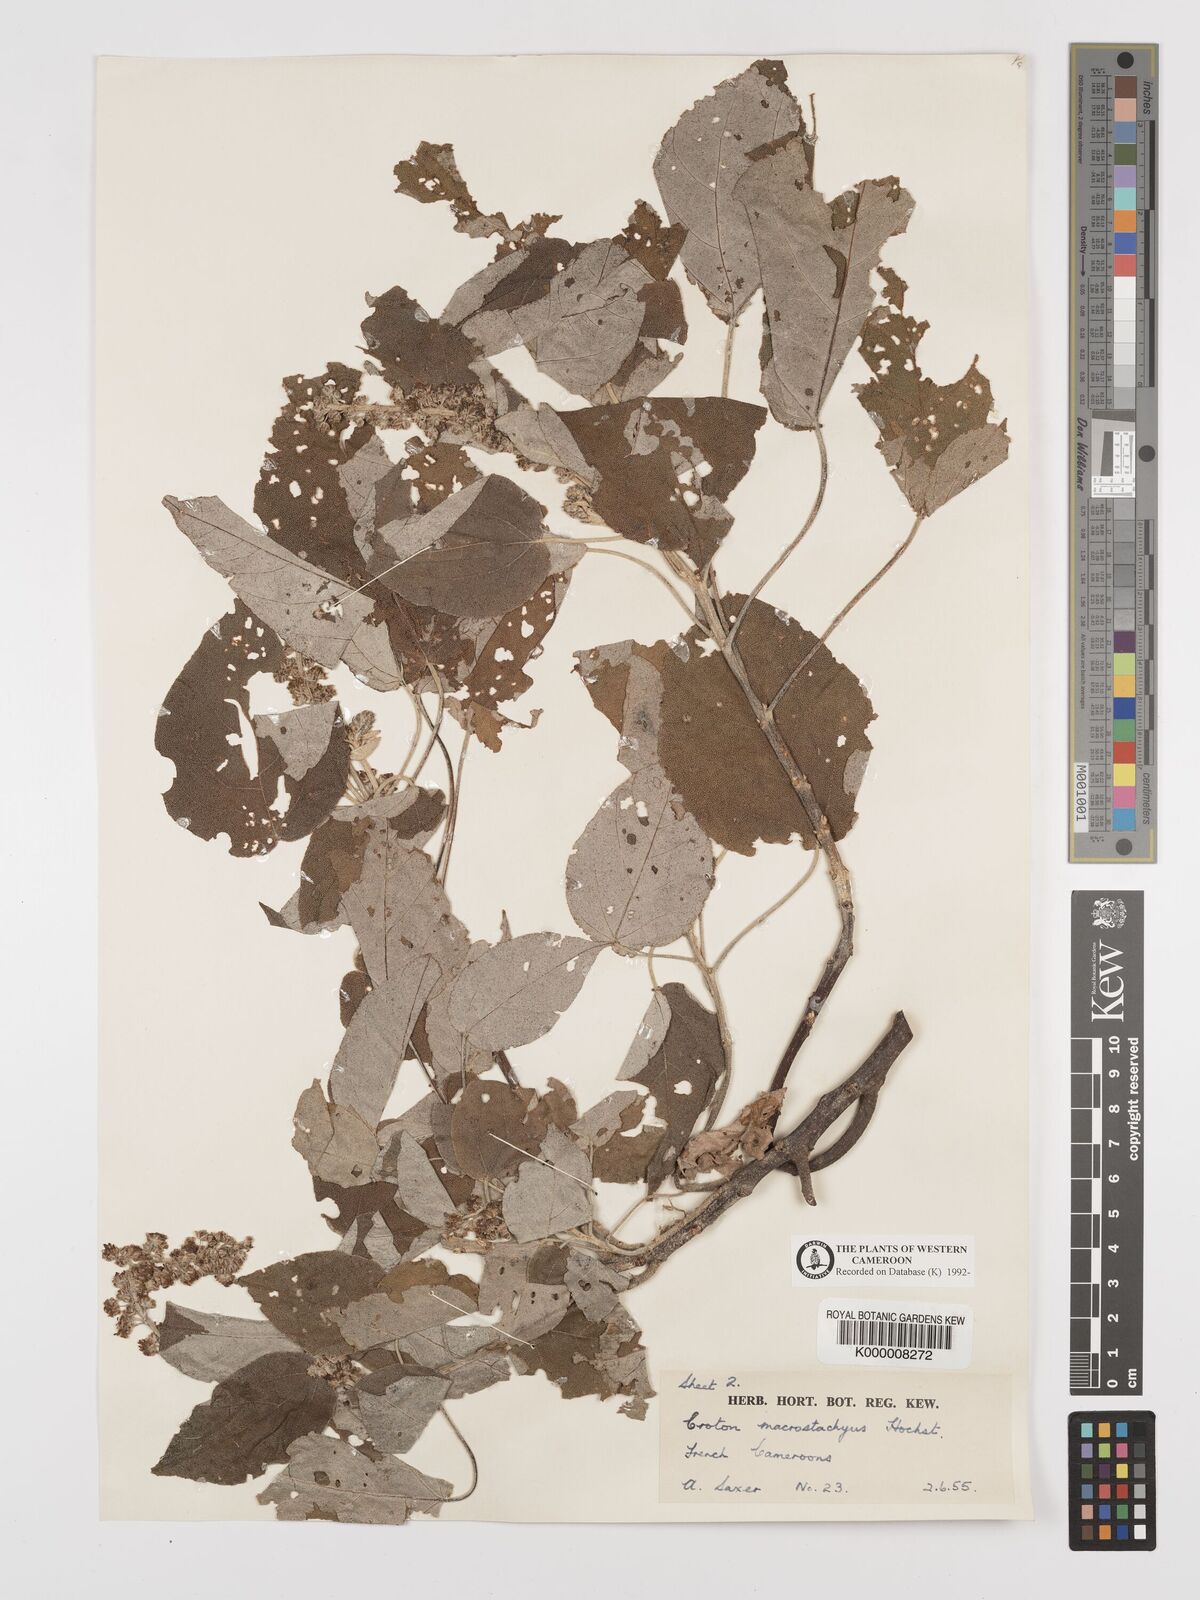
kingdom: Plantae
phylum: Tracheophyta
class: Magnoliopsida
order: Malpighiales
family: Euphorbiaceae
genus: Croton
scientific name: Croton macrostachyus
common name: Mutundu
